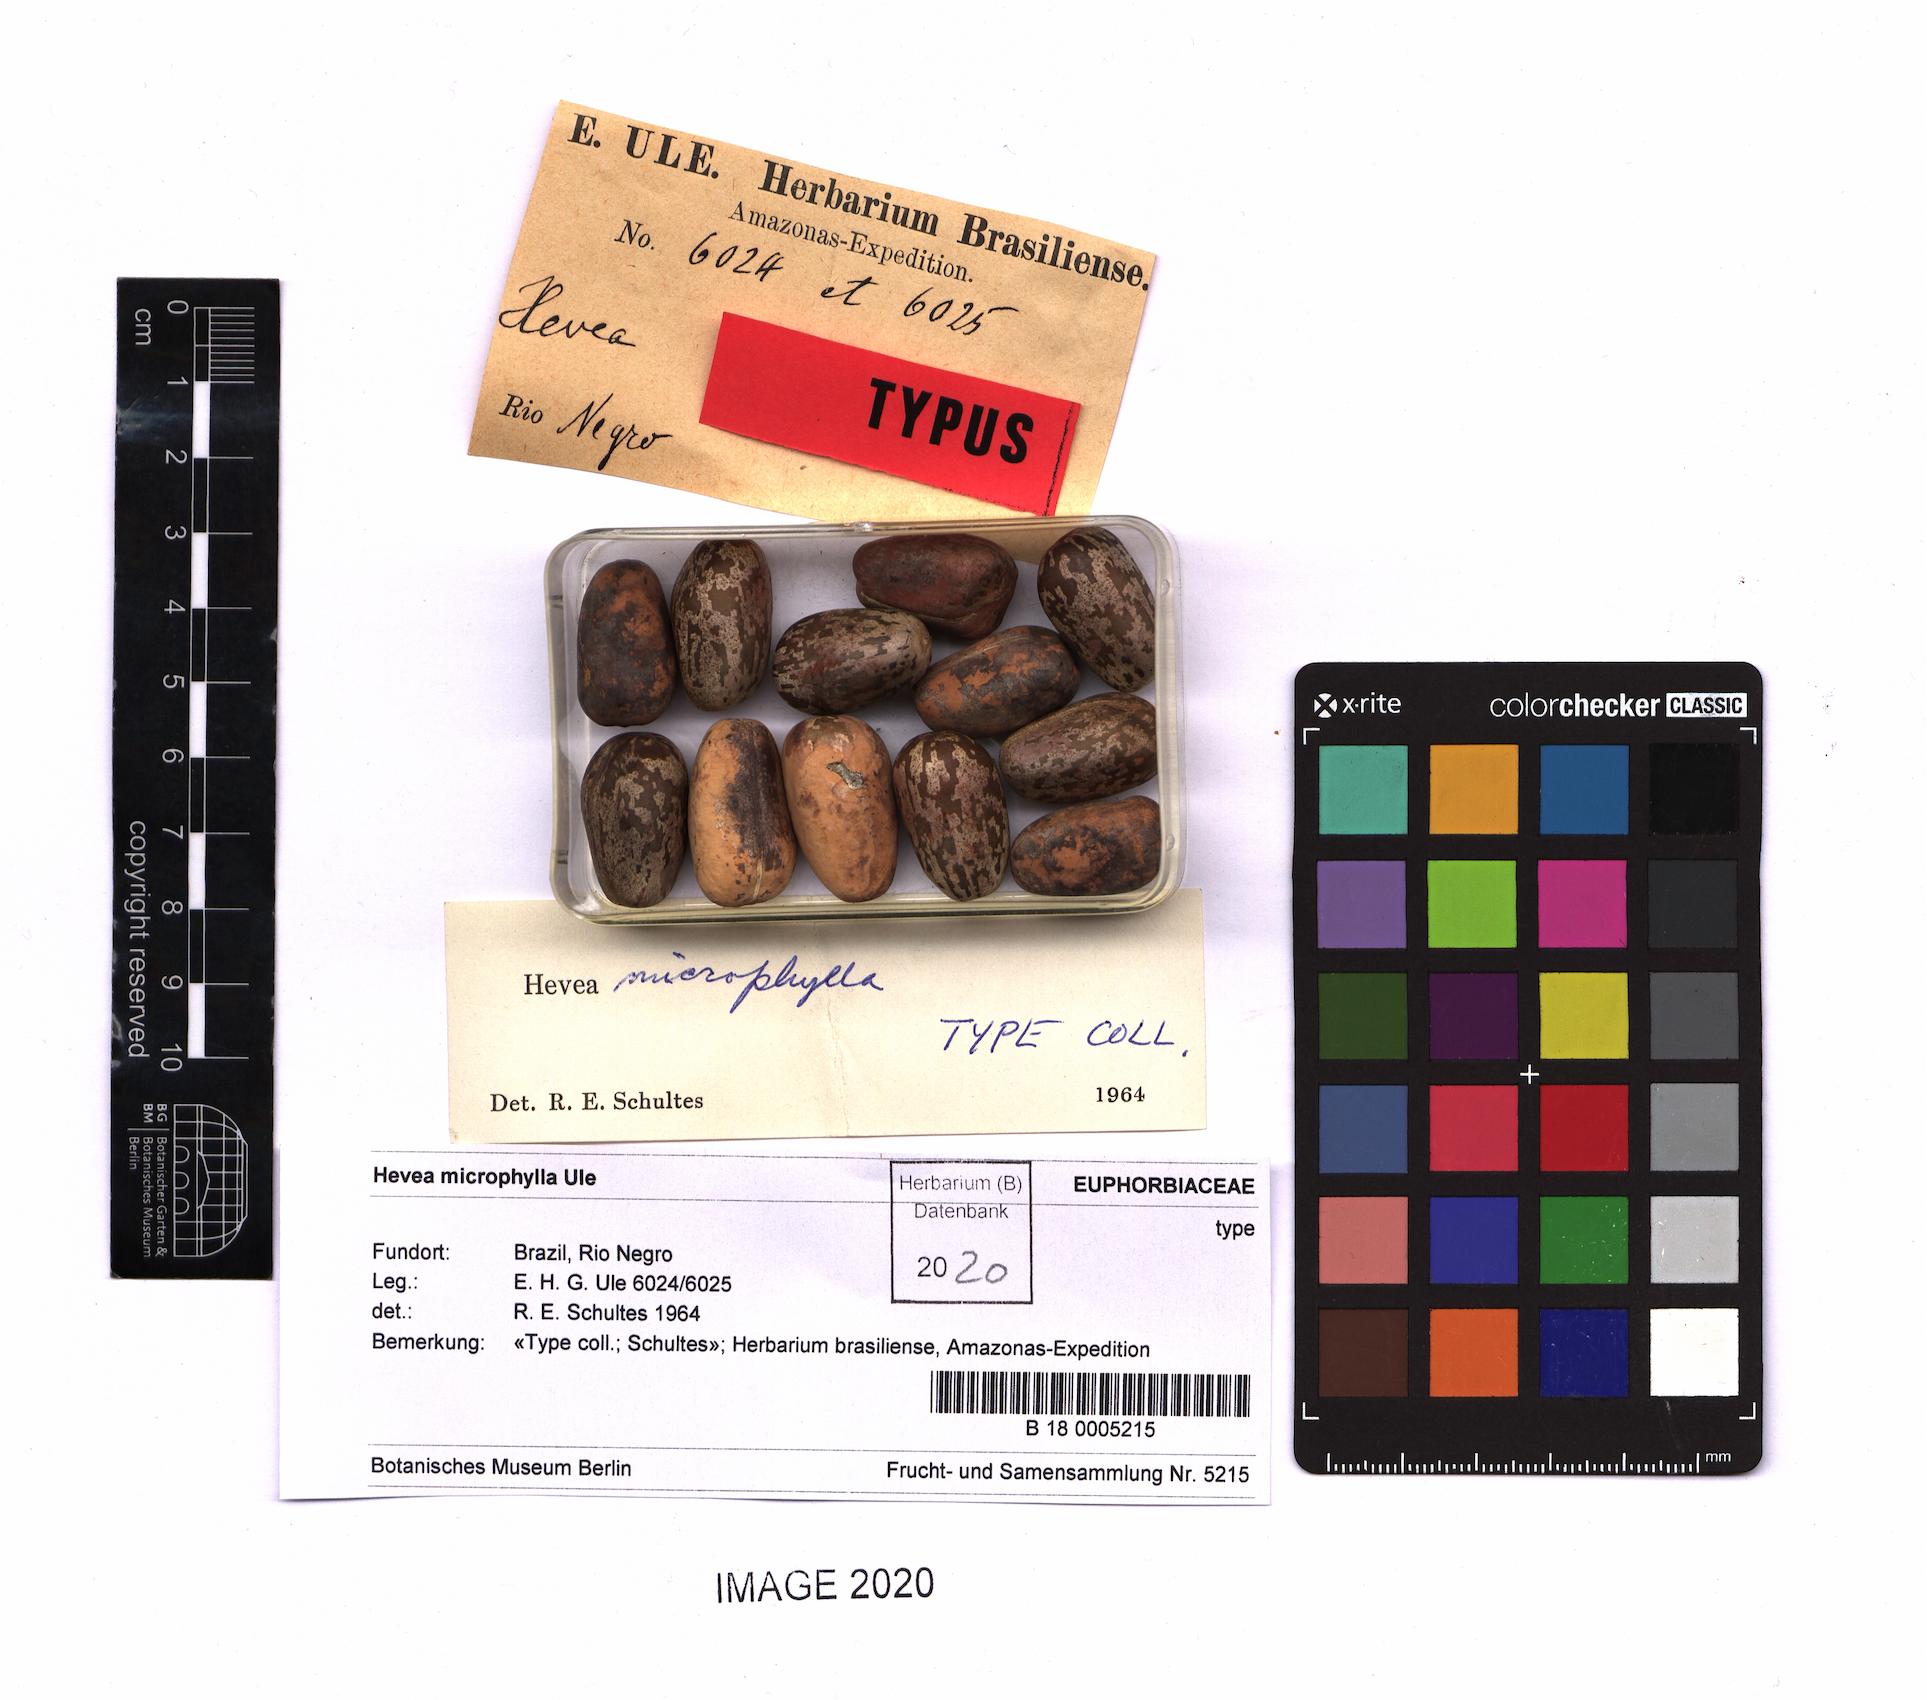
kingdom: Plantae
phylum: Tracheophyta
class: Magnoliopsida
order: Malpighiales
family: Euphorbiaceae
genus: Hevea
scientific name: Hevea microphylla
